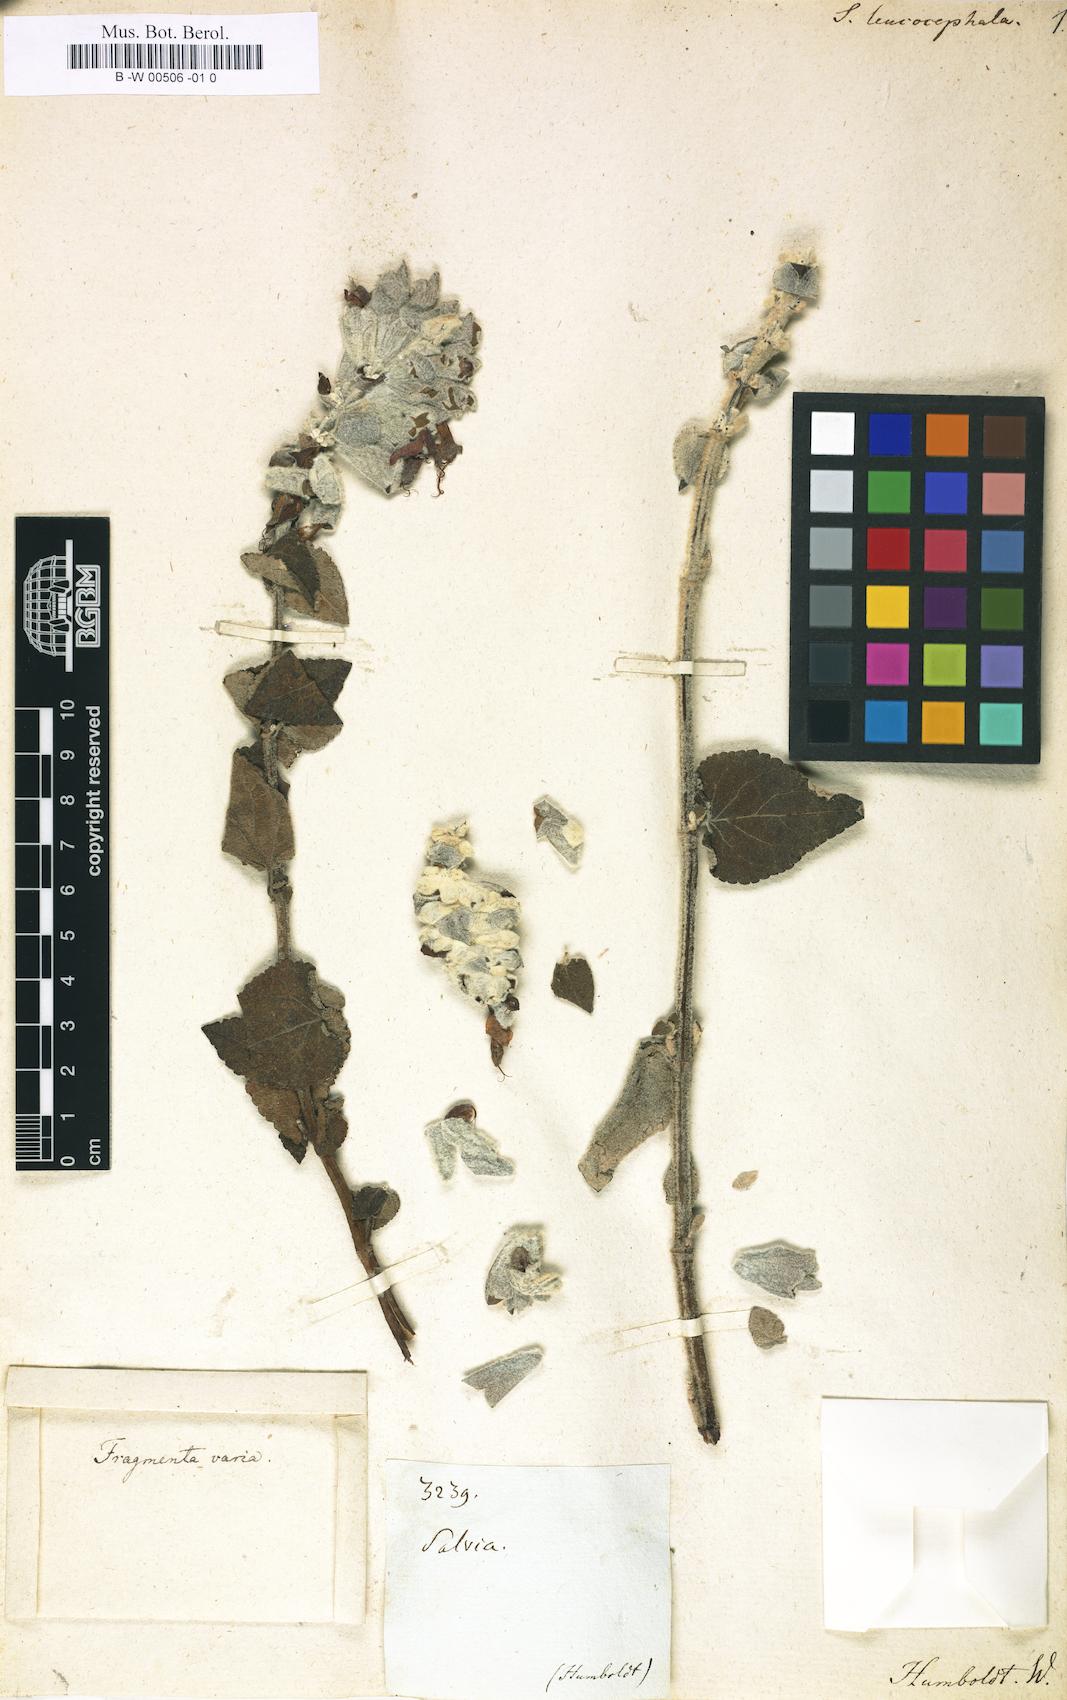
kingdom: Plantae
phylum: Tracheophyta
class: Magnoliopsida
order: Lamiales
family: Lamiaceae
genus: Salvia
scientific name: Salvia leucocephala
